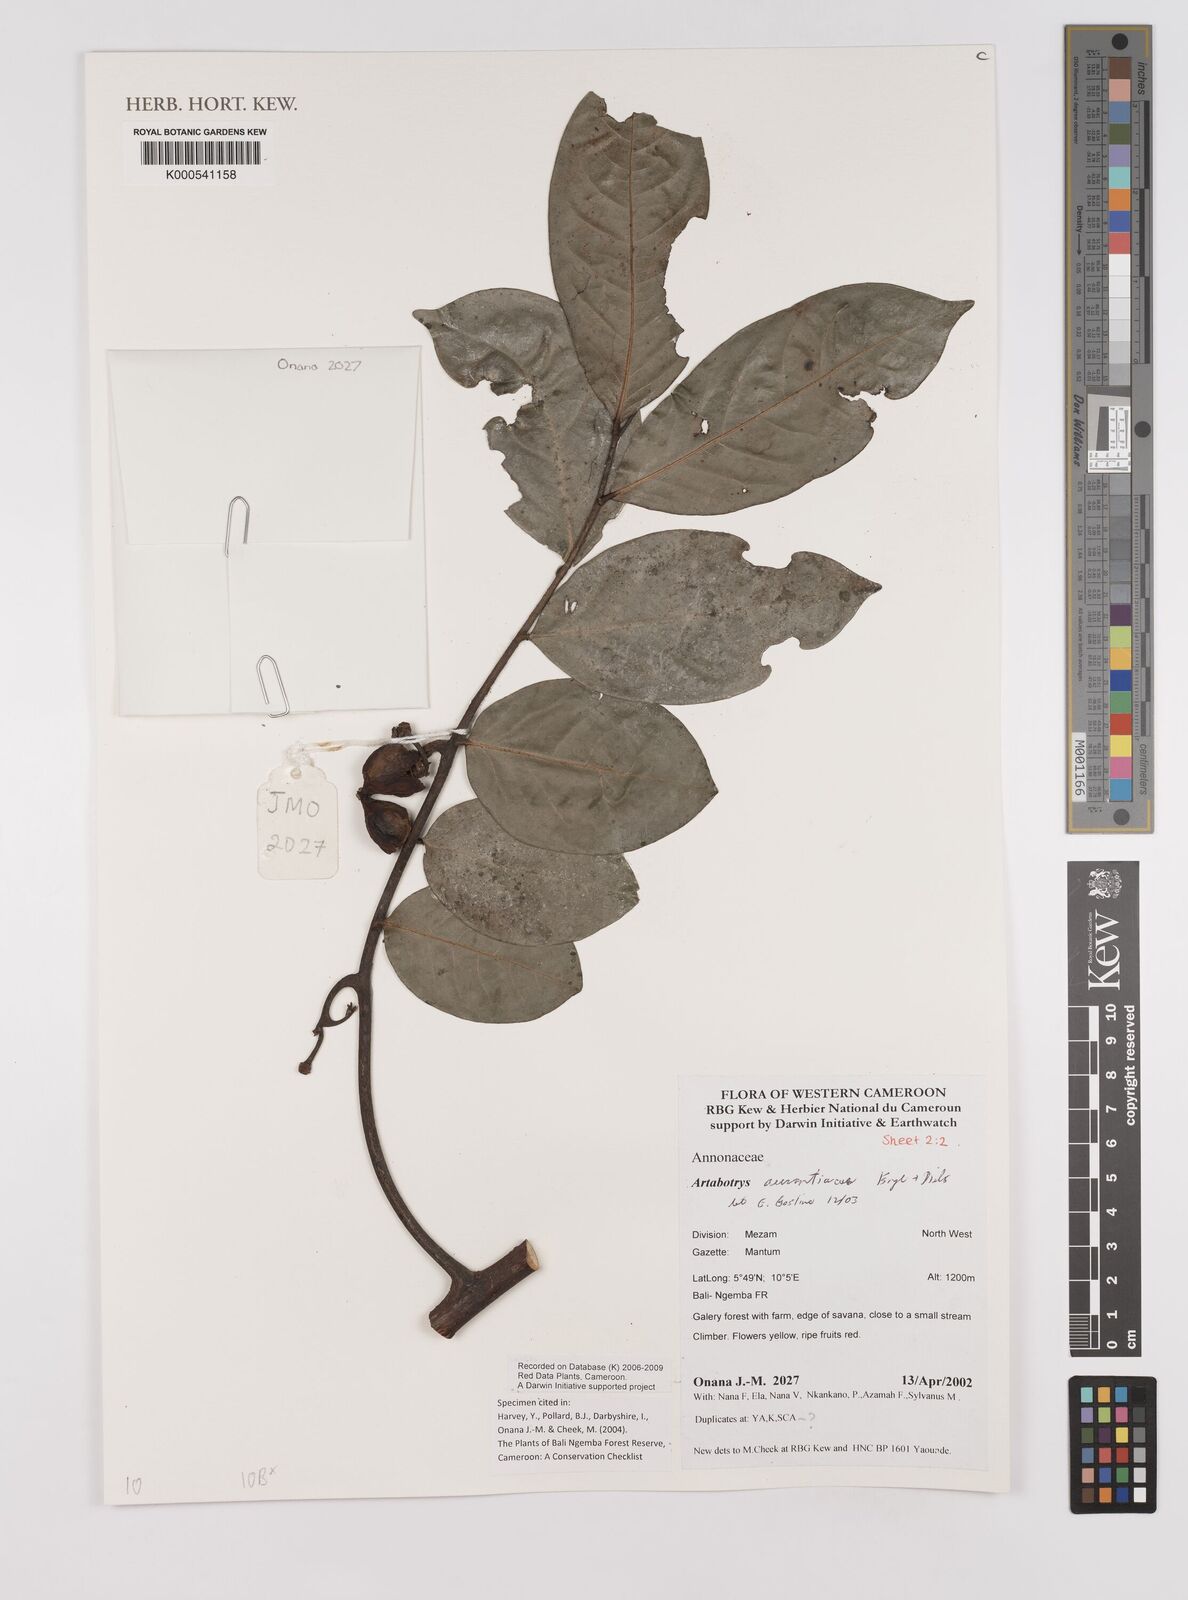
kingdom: Plantae
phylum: Tracheophyta
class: Magnoliopsida
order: Magnoliales
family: Annonaceae
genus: Artabotrys
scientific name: Artabotrys aurantiacus
